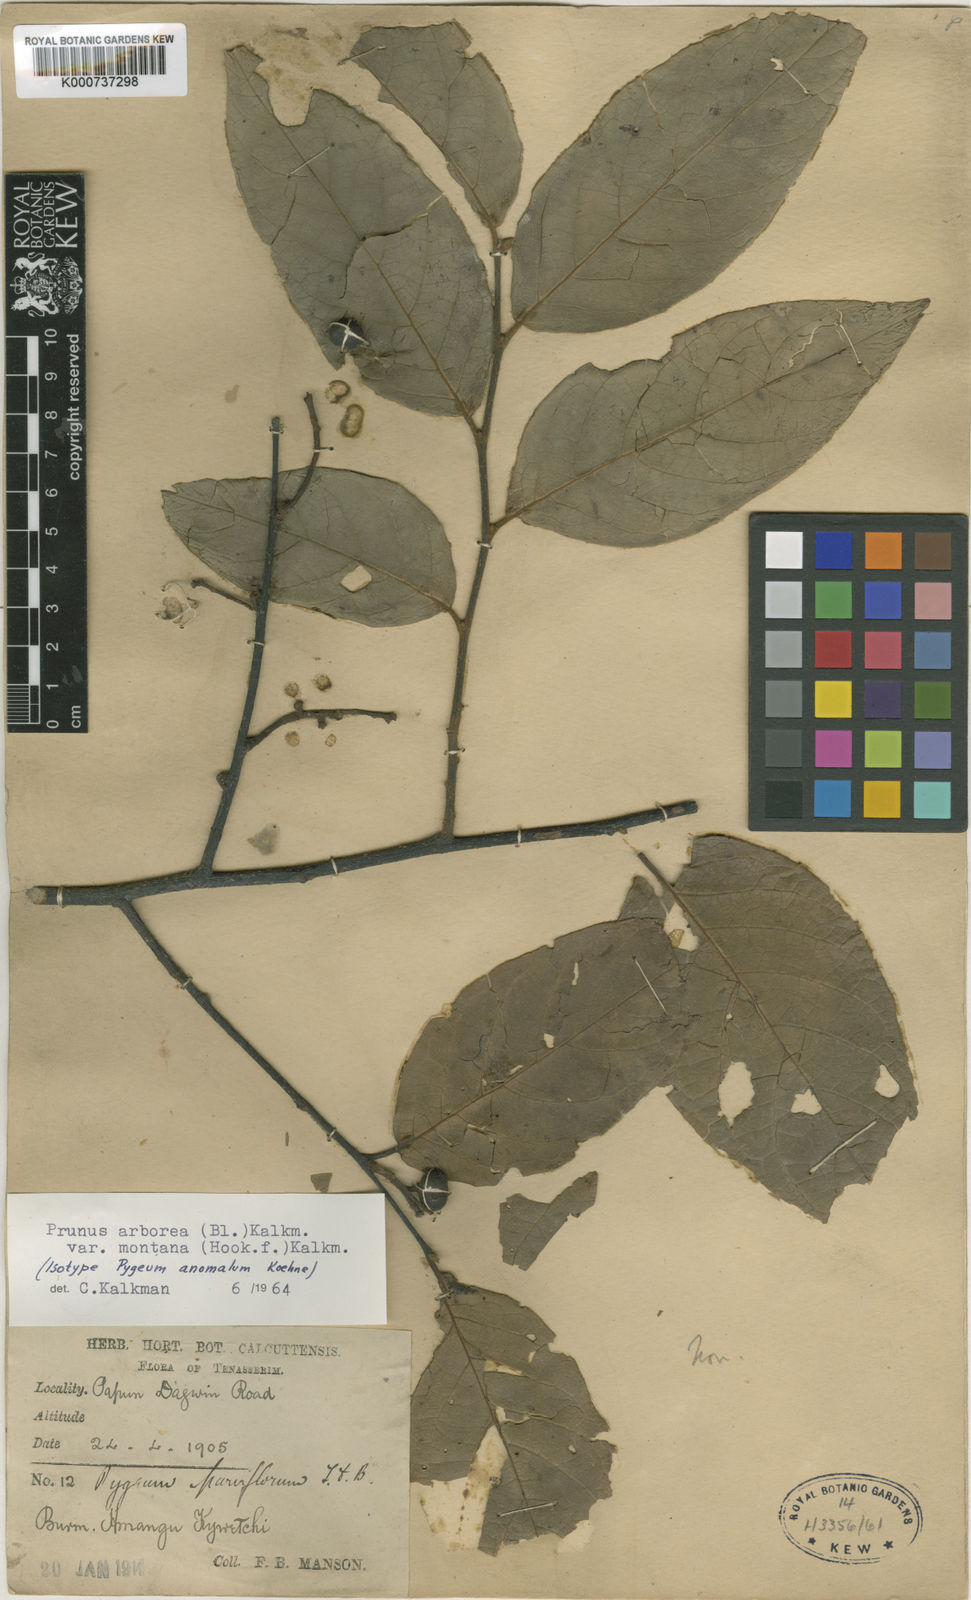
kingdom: Plantae
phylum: Tracheophyta
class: Magnoliopsida
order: Rosales
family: Rosaceae
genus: Prunus
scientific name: Prunus arborea
